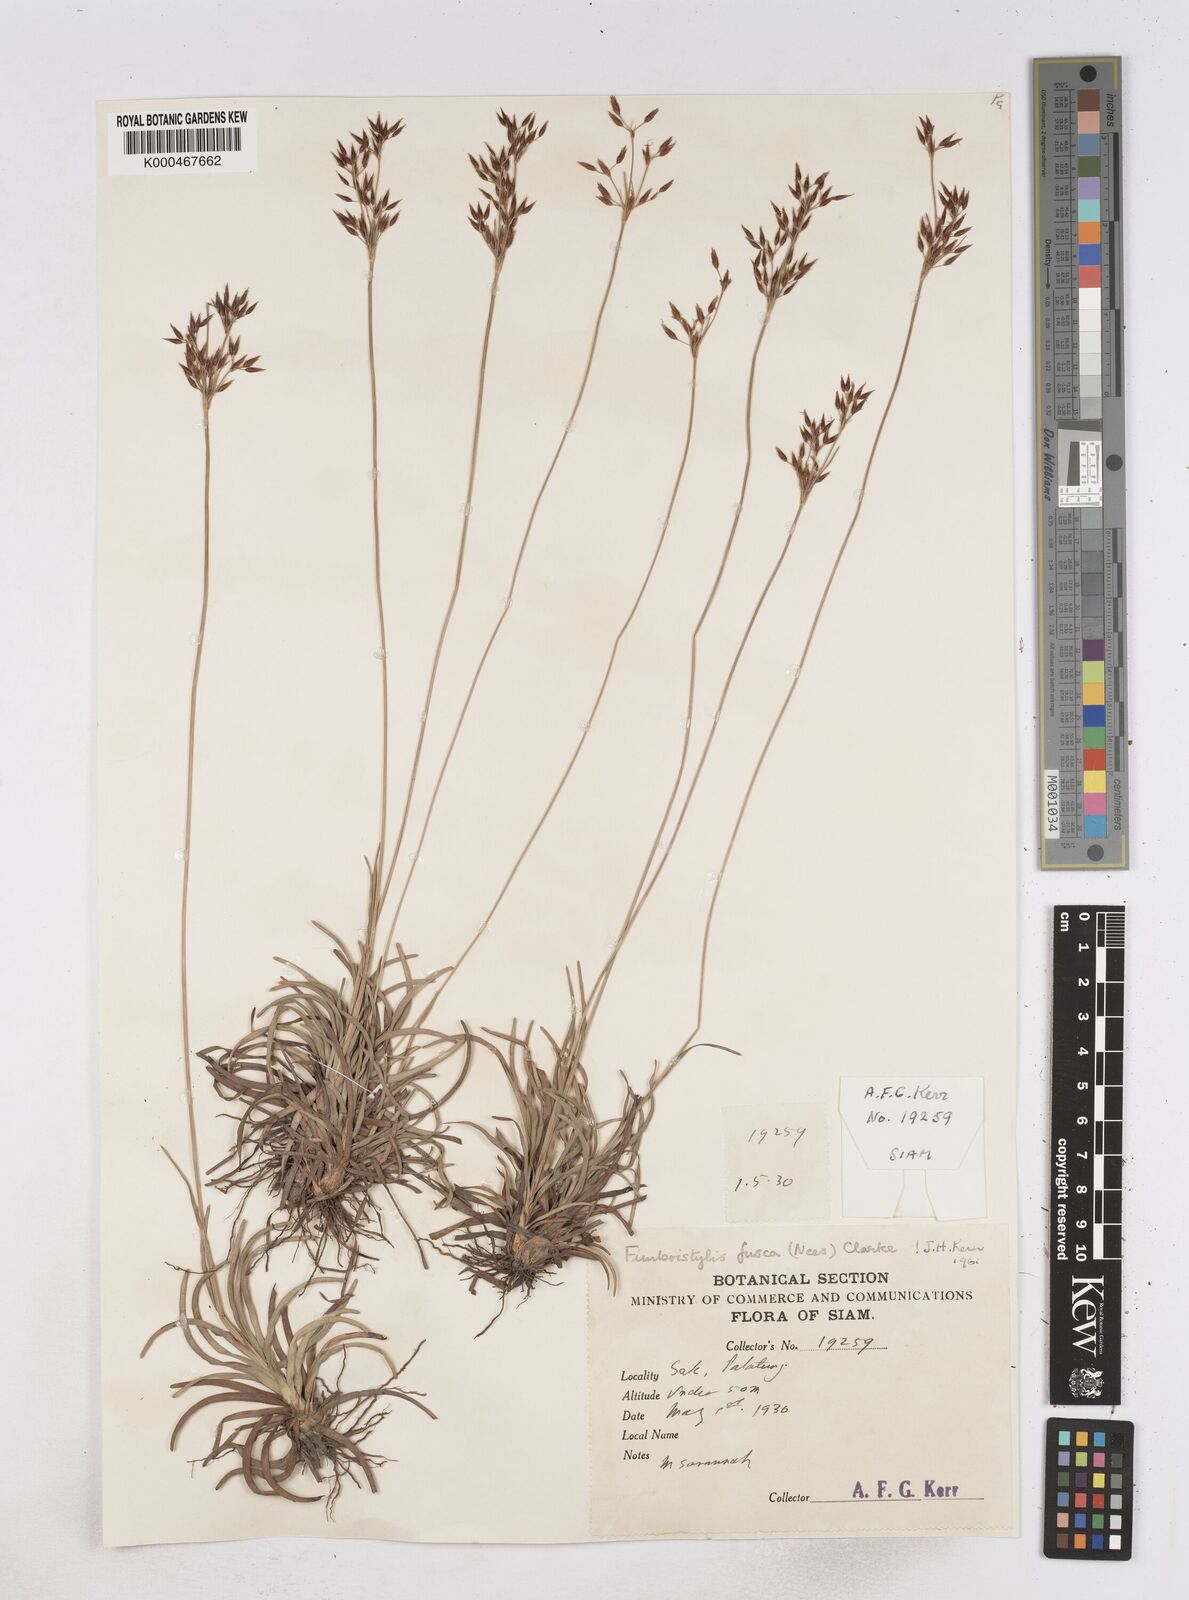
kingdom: Plantae
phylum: Tracheophyta
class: Liliopsida
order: Poales
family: Cyperaceae
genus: Fimbristylis
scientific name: Fimbristylis fusca
